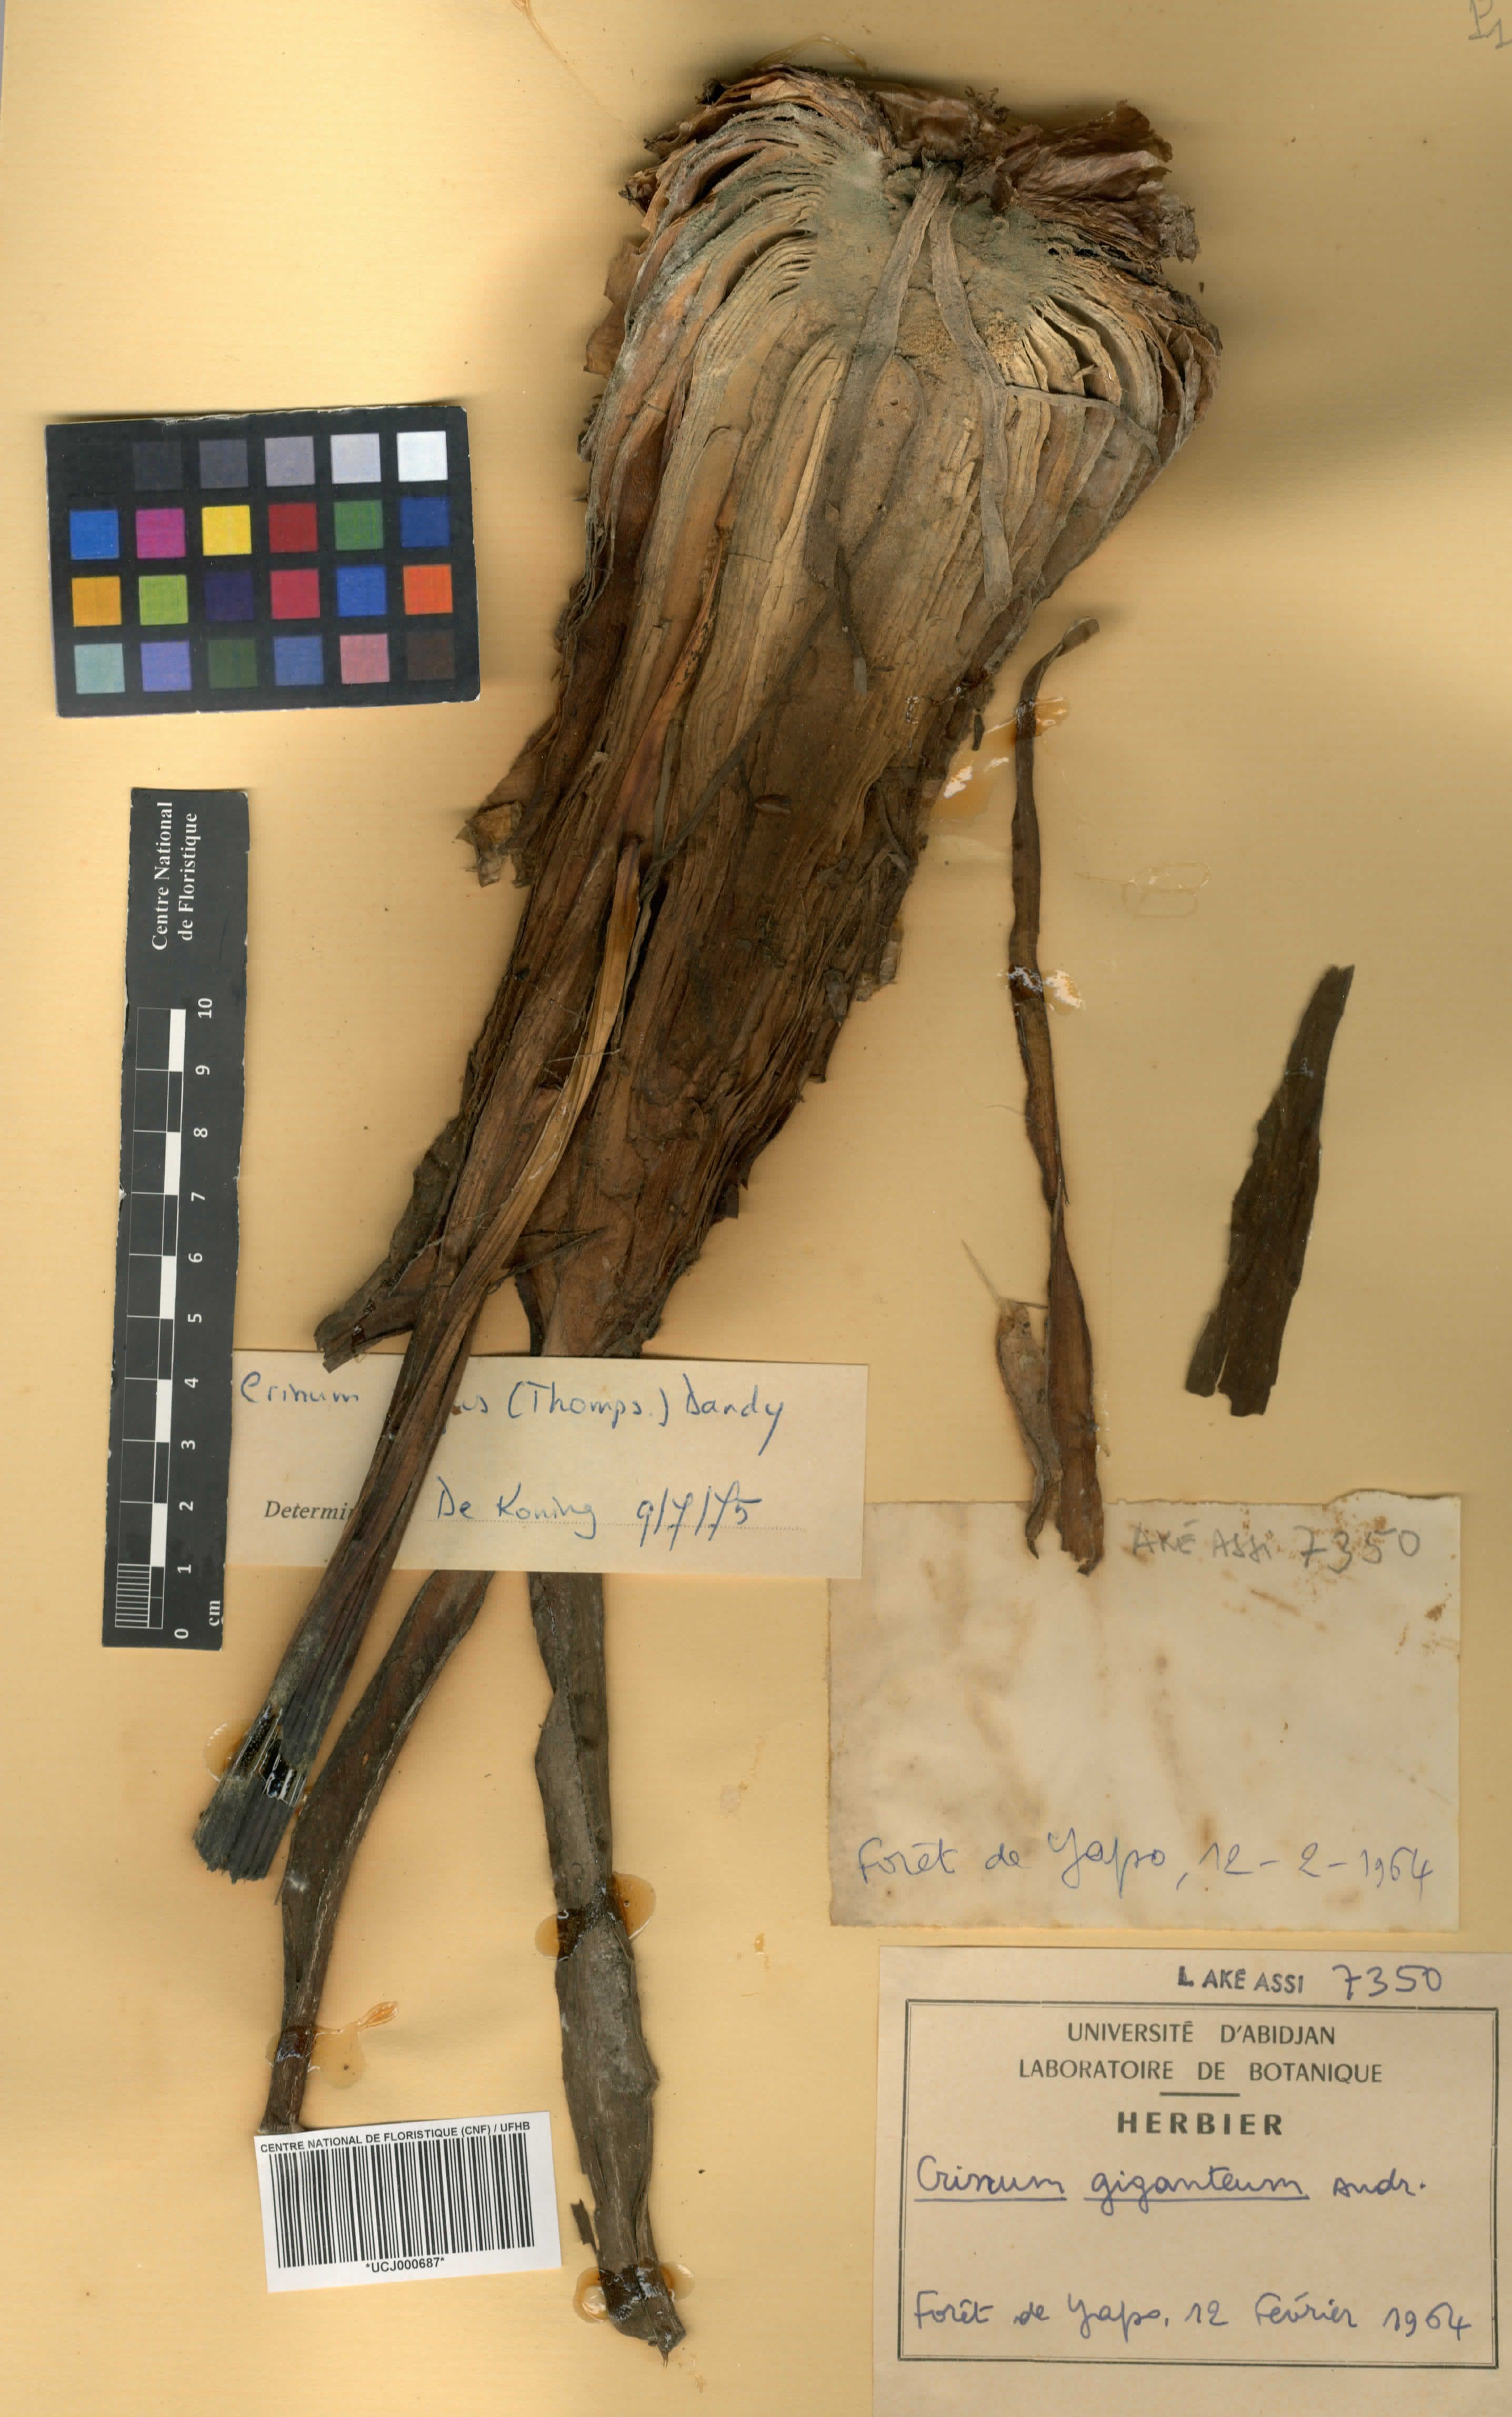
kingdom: Plantae
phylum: Tracheophyta
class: Liliopsida
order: Asparagales
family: Amaryllidaceae
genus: Crinum
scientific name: Crinum jagus
